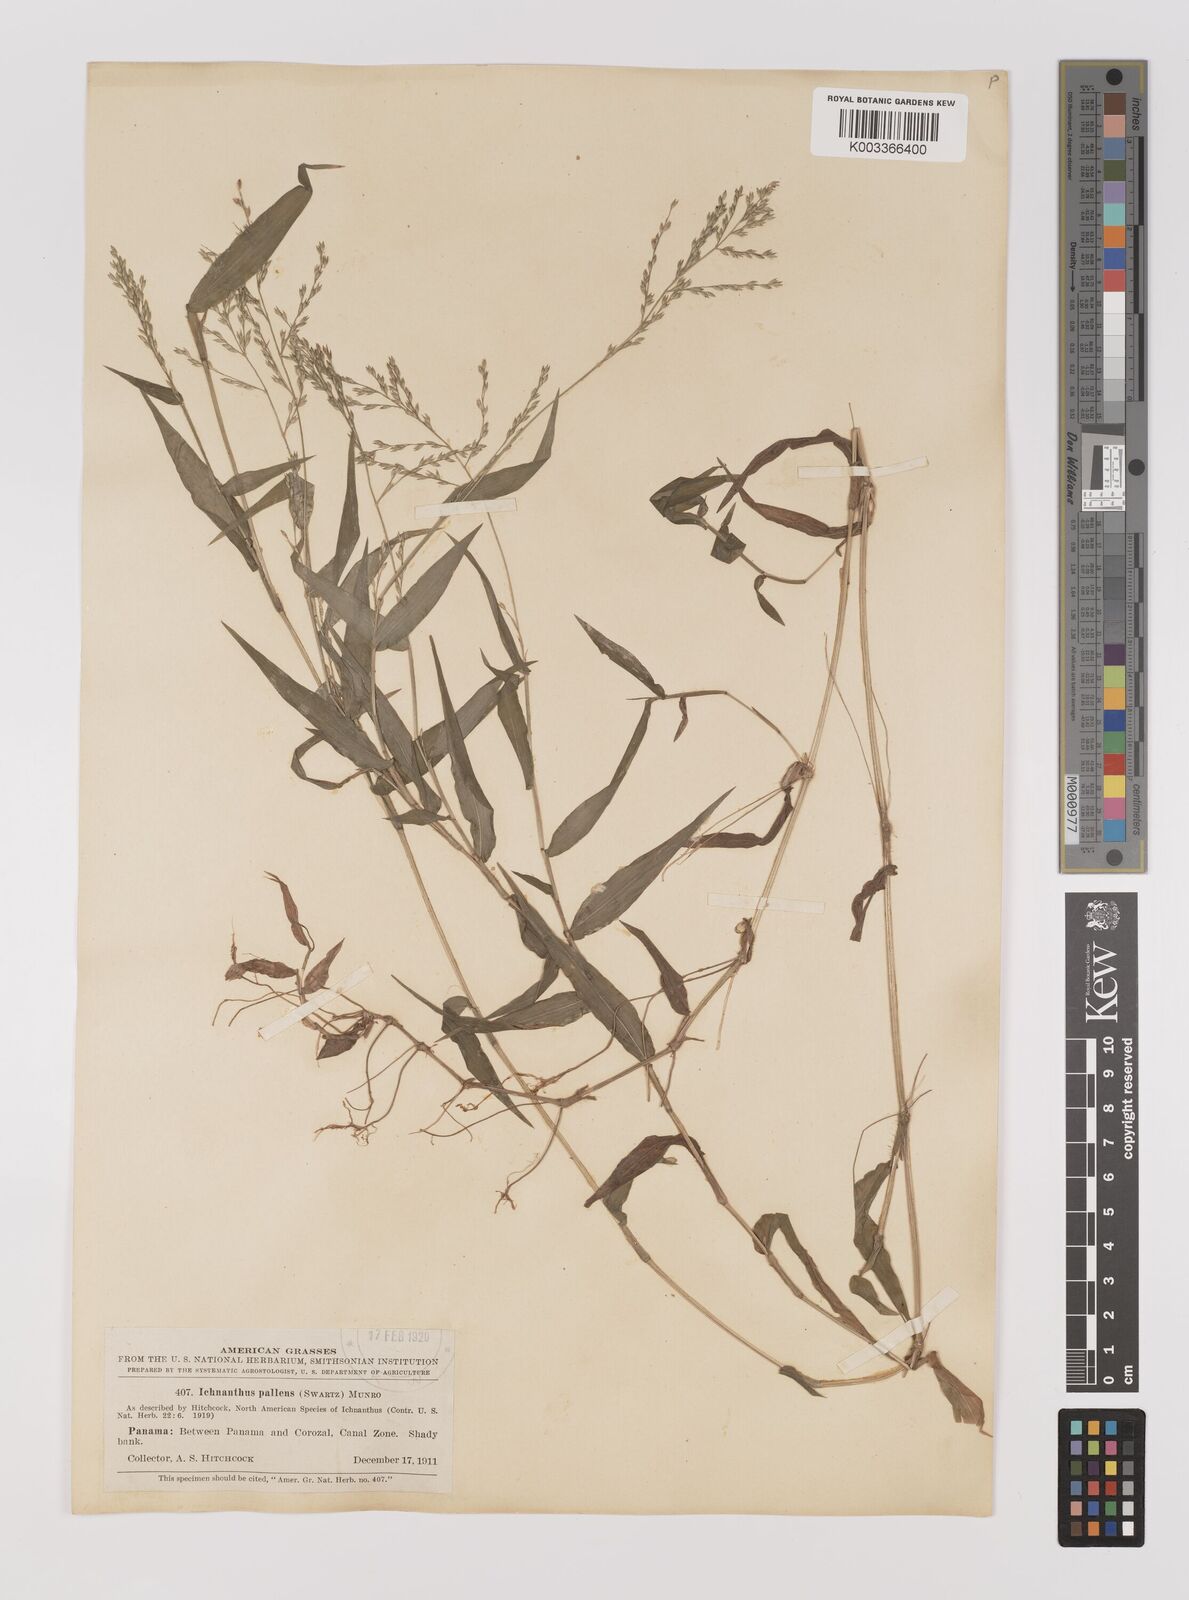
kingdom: Plantae
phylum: Tracheophyta
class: Liliopsida
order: Poales
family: Poaceae
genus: Ichnanthus
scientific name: Ichnanthus pallens
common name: Water grass
